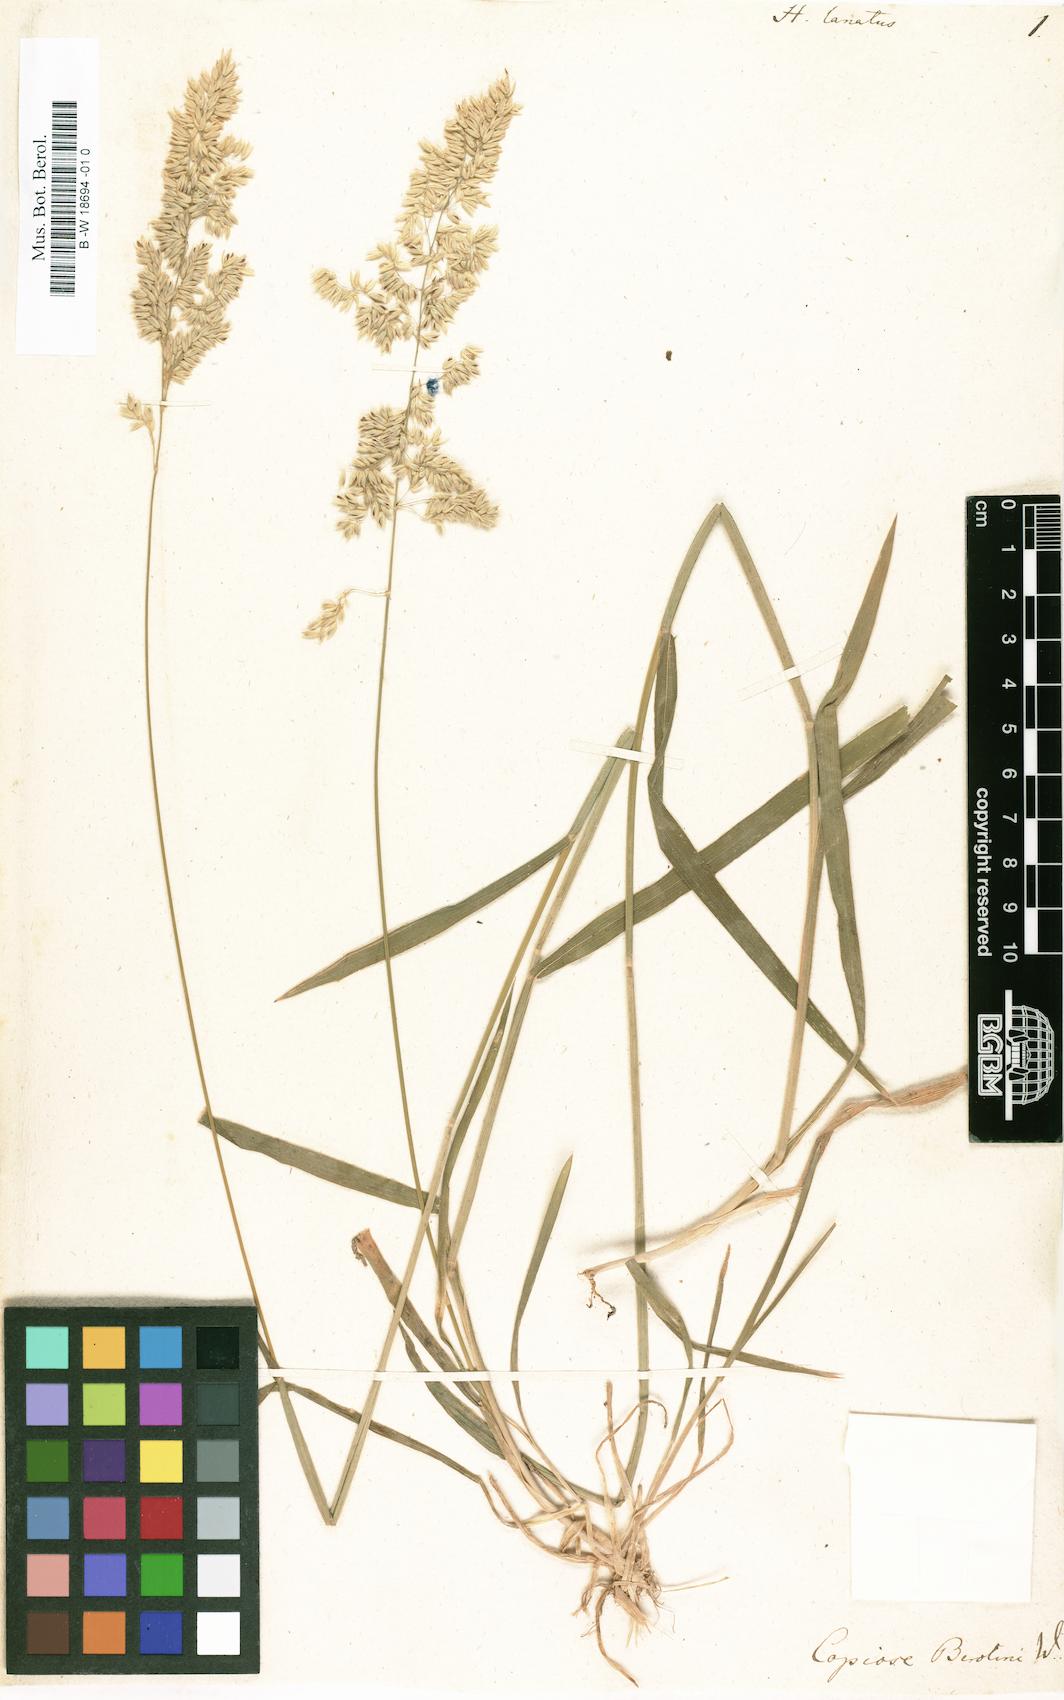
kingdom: Plantae
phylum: Tracheophyta
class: Liliopsida
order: Poales
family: Poaceae
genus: Holcus
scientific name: Holcus lanatus
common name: Yorkshire-fog
